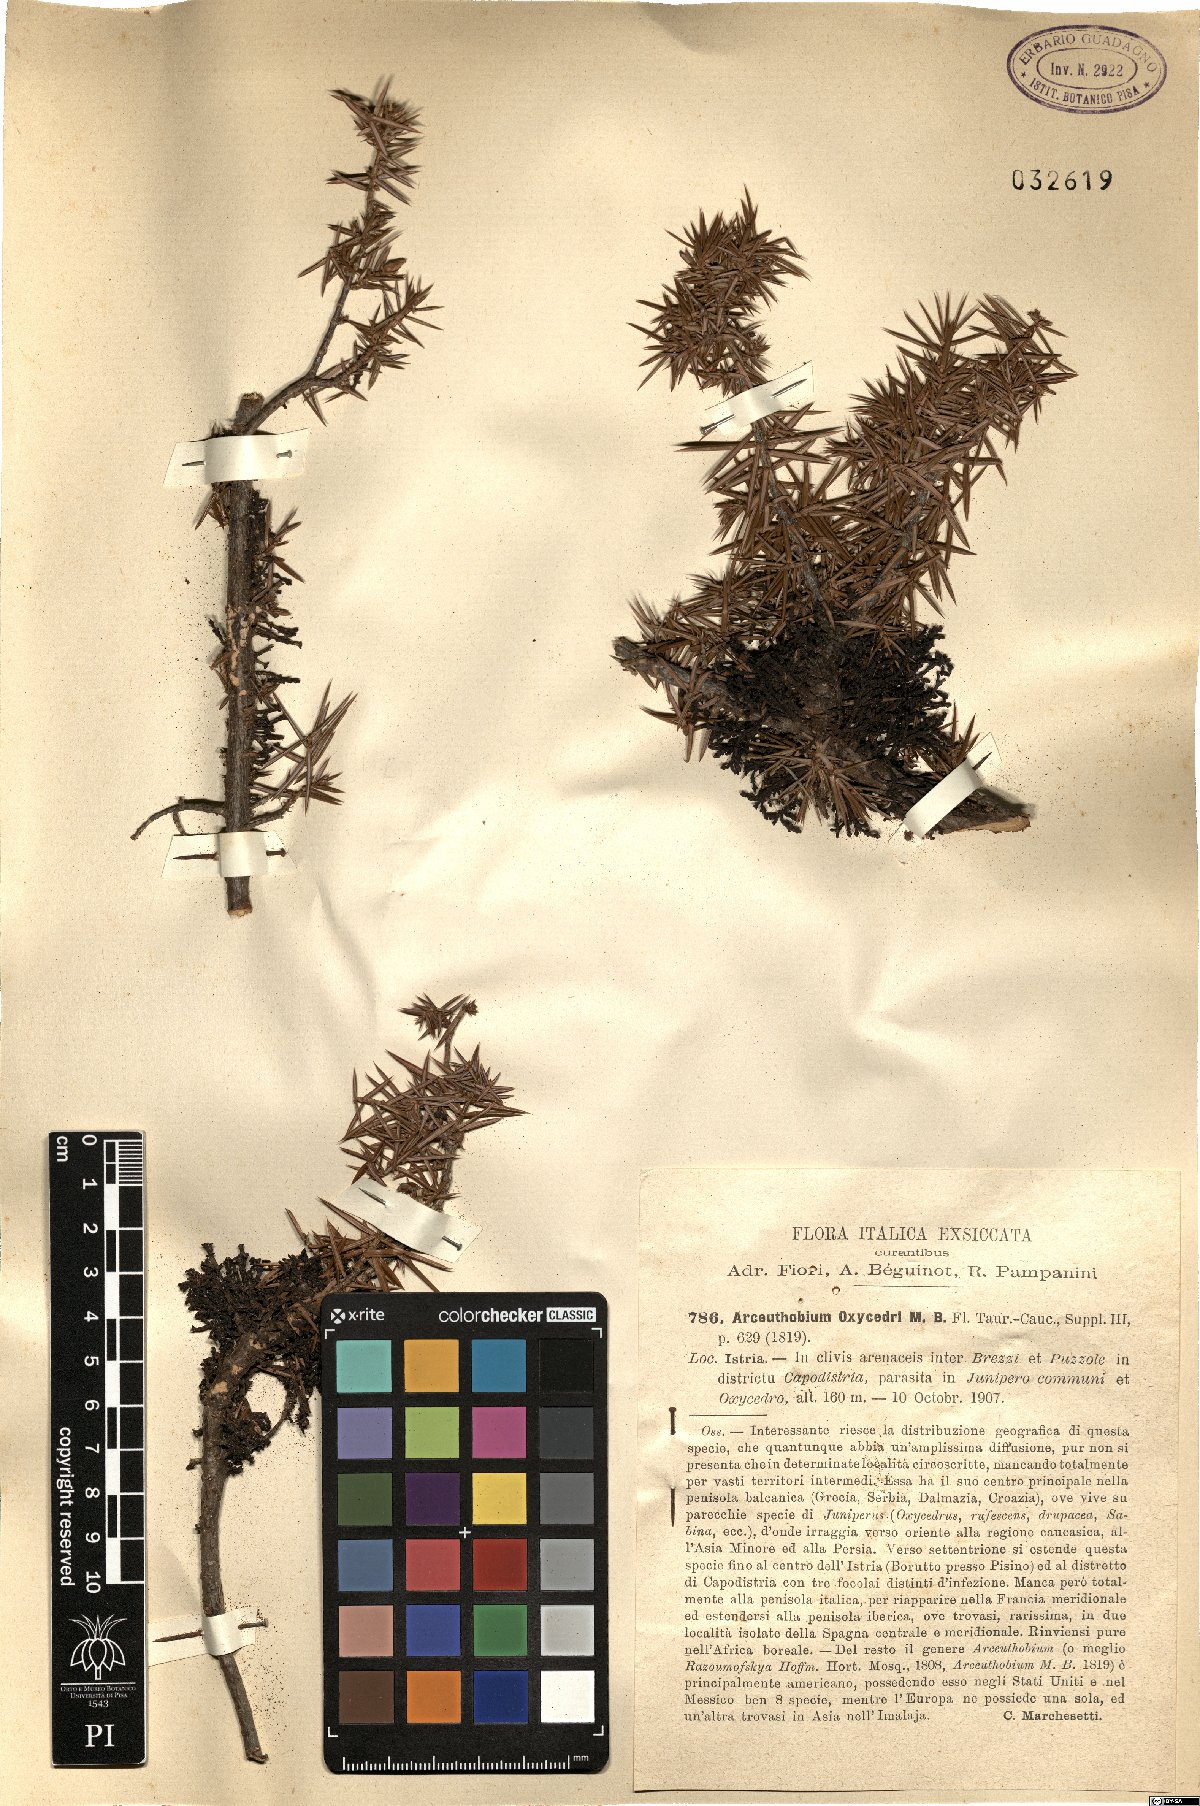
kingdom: Plantae
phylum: Tracheophyta
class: Magnoliopsida
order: Santalales
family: Viscaceae
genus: Arceuthobium
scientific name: Arceuthobium oxycedri
